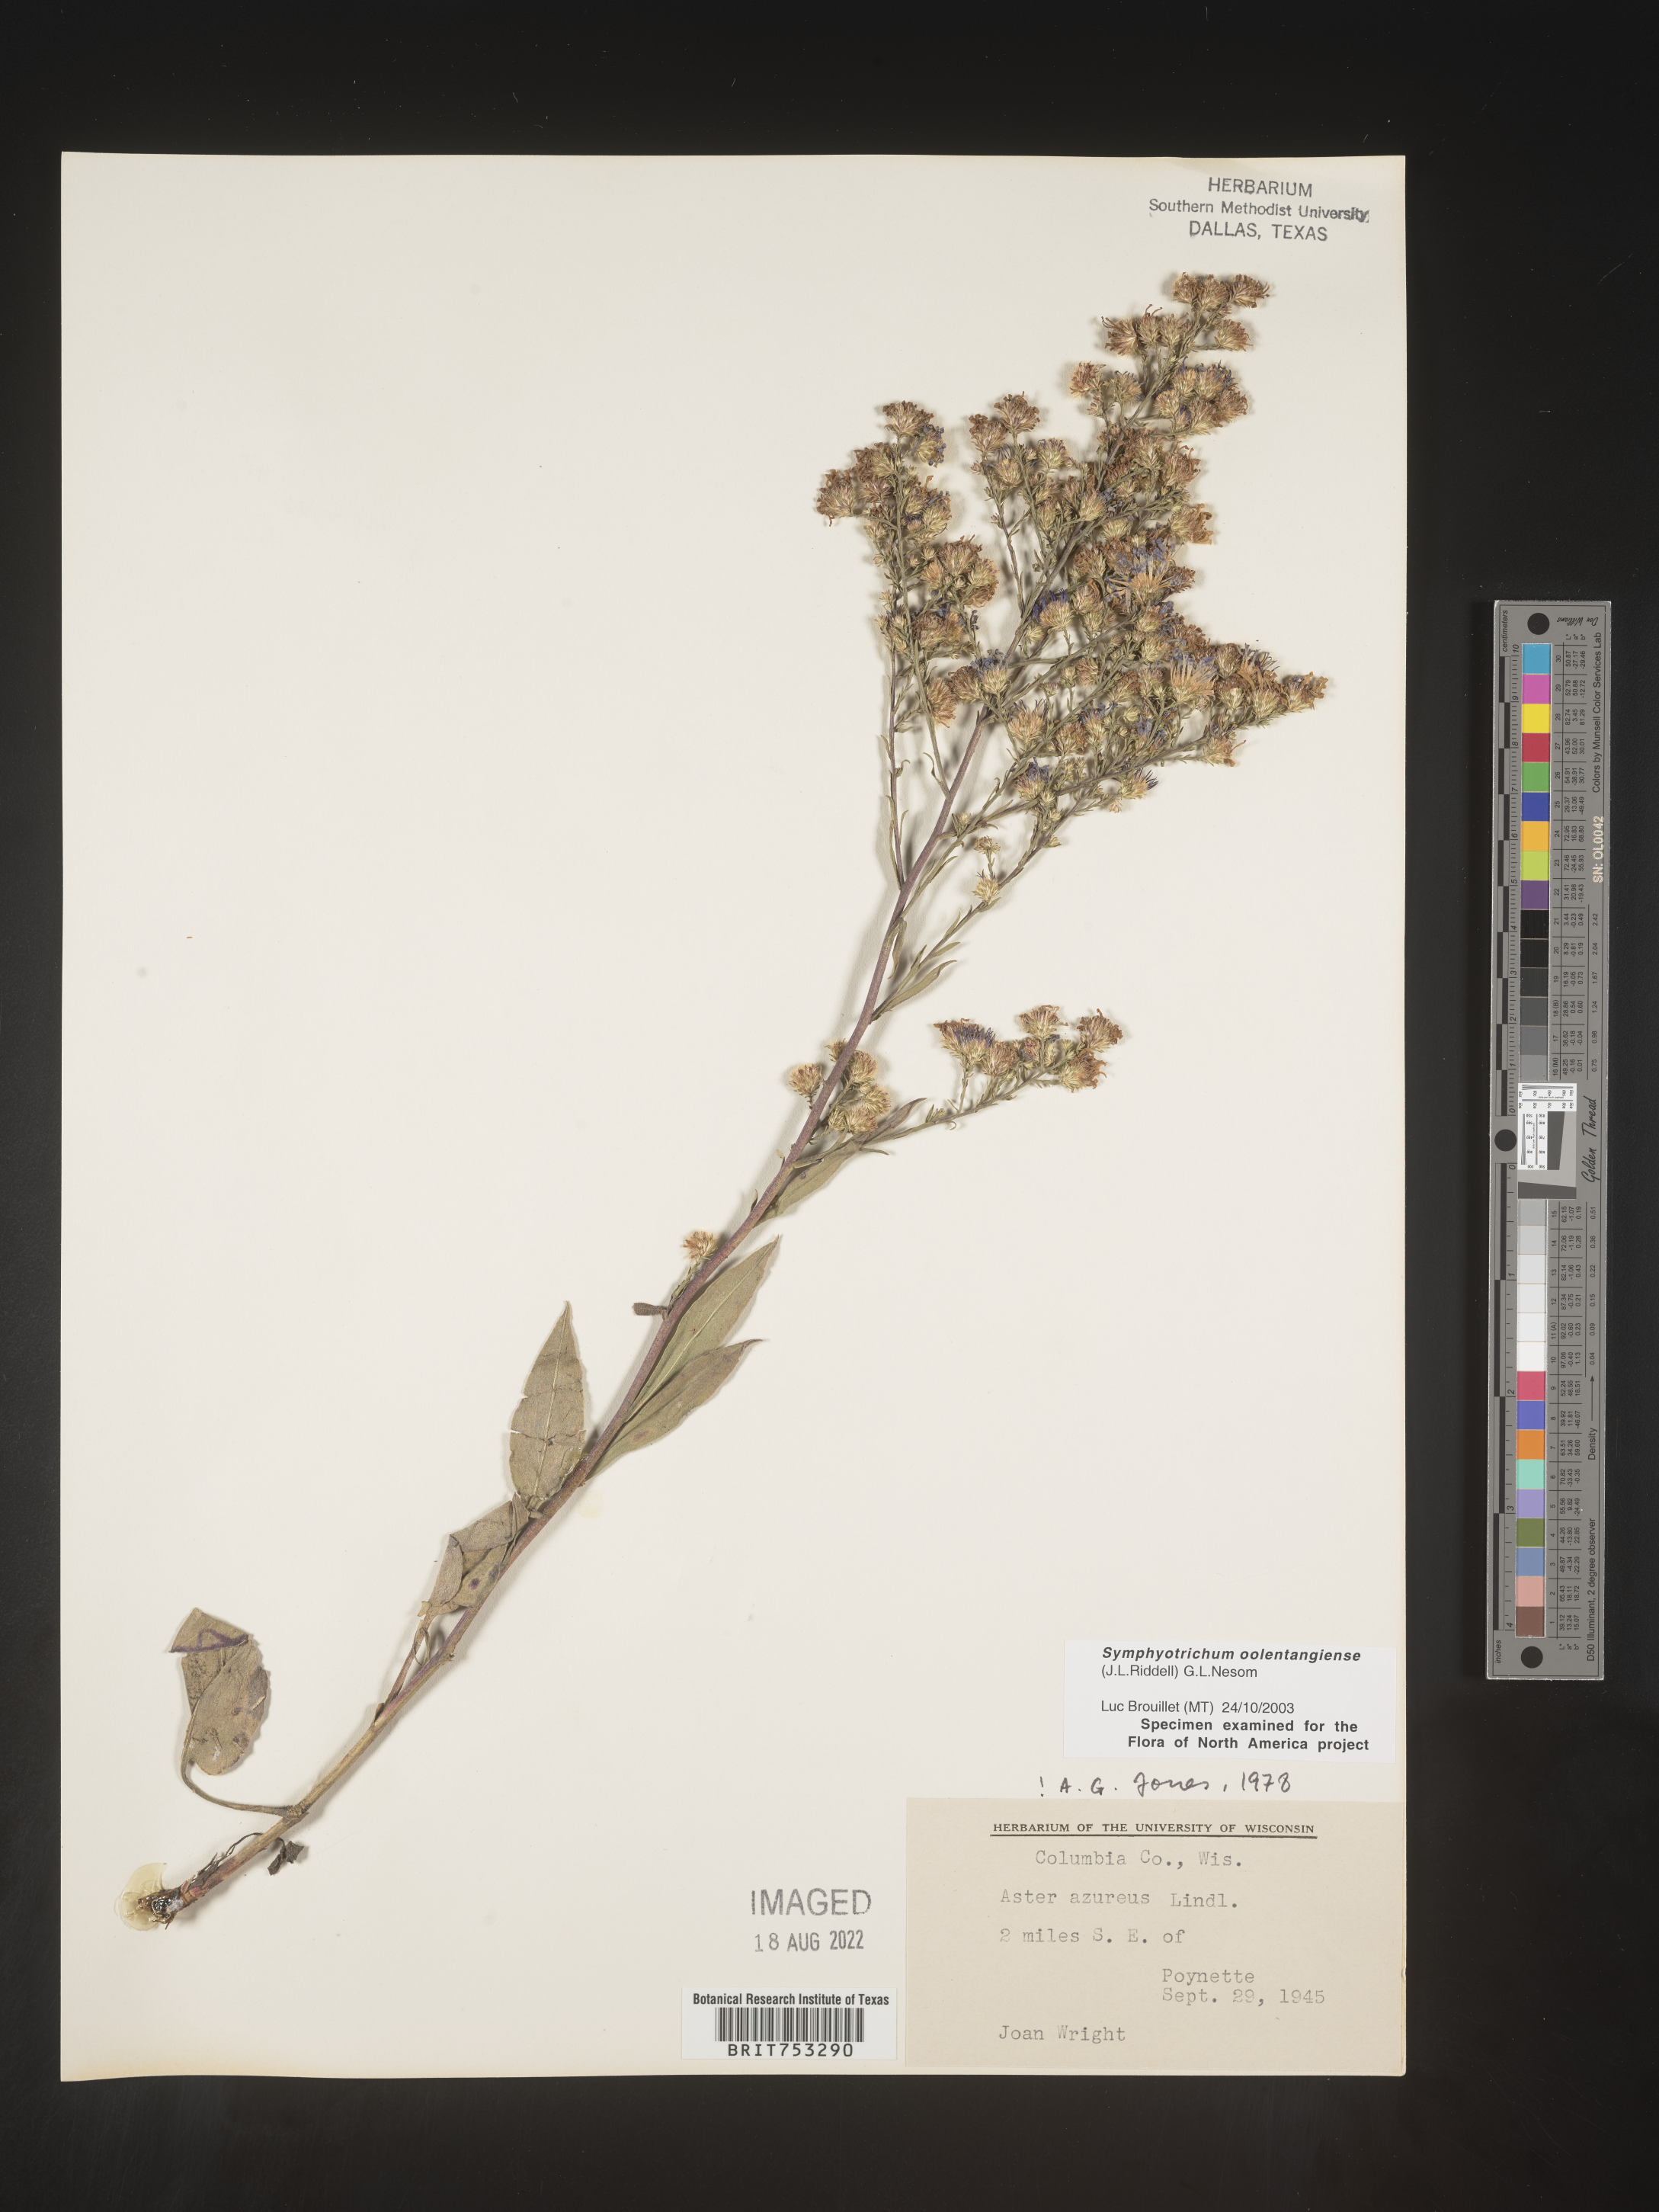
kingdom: Plantae
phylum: Tracheophyta
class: Magnoliopsida
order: Asterales
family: Asteraceae
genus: Symphyotrichum
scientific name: Symphyotrichum oolentangiense
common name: Azure aster
